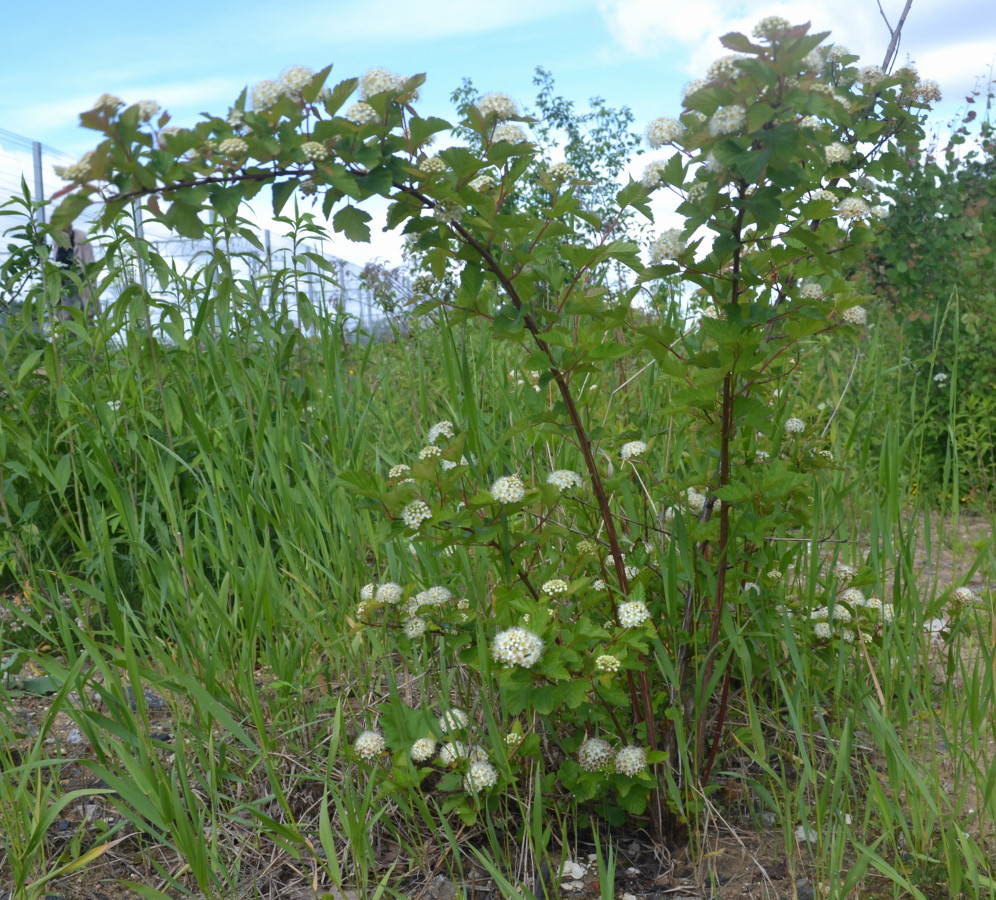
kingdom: Plantae
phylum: Tracheophyta
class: Magnoliopsida
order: Rosales
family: Rosaceae
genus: Physocarpus
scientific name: Physocarpus opulifolius
